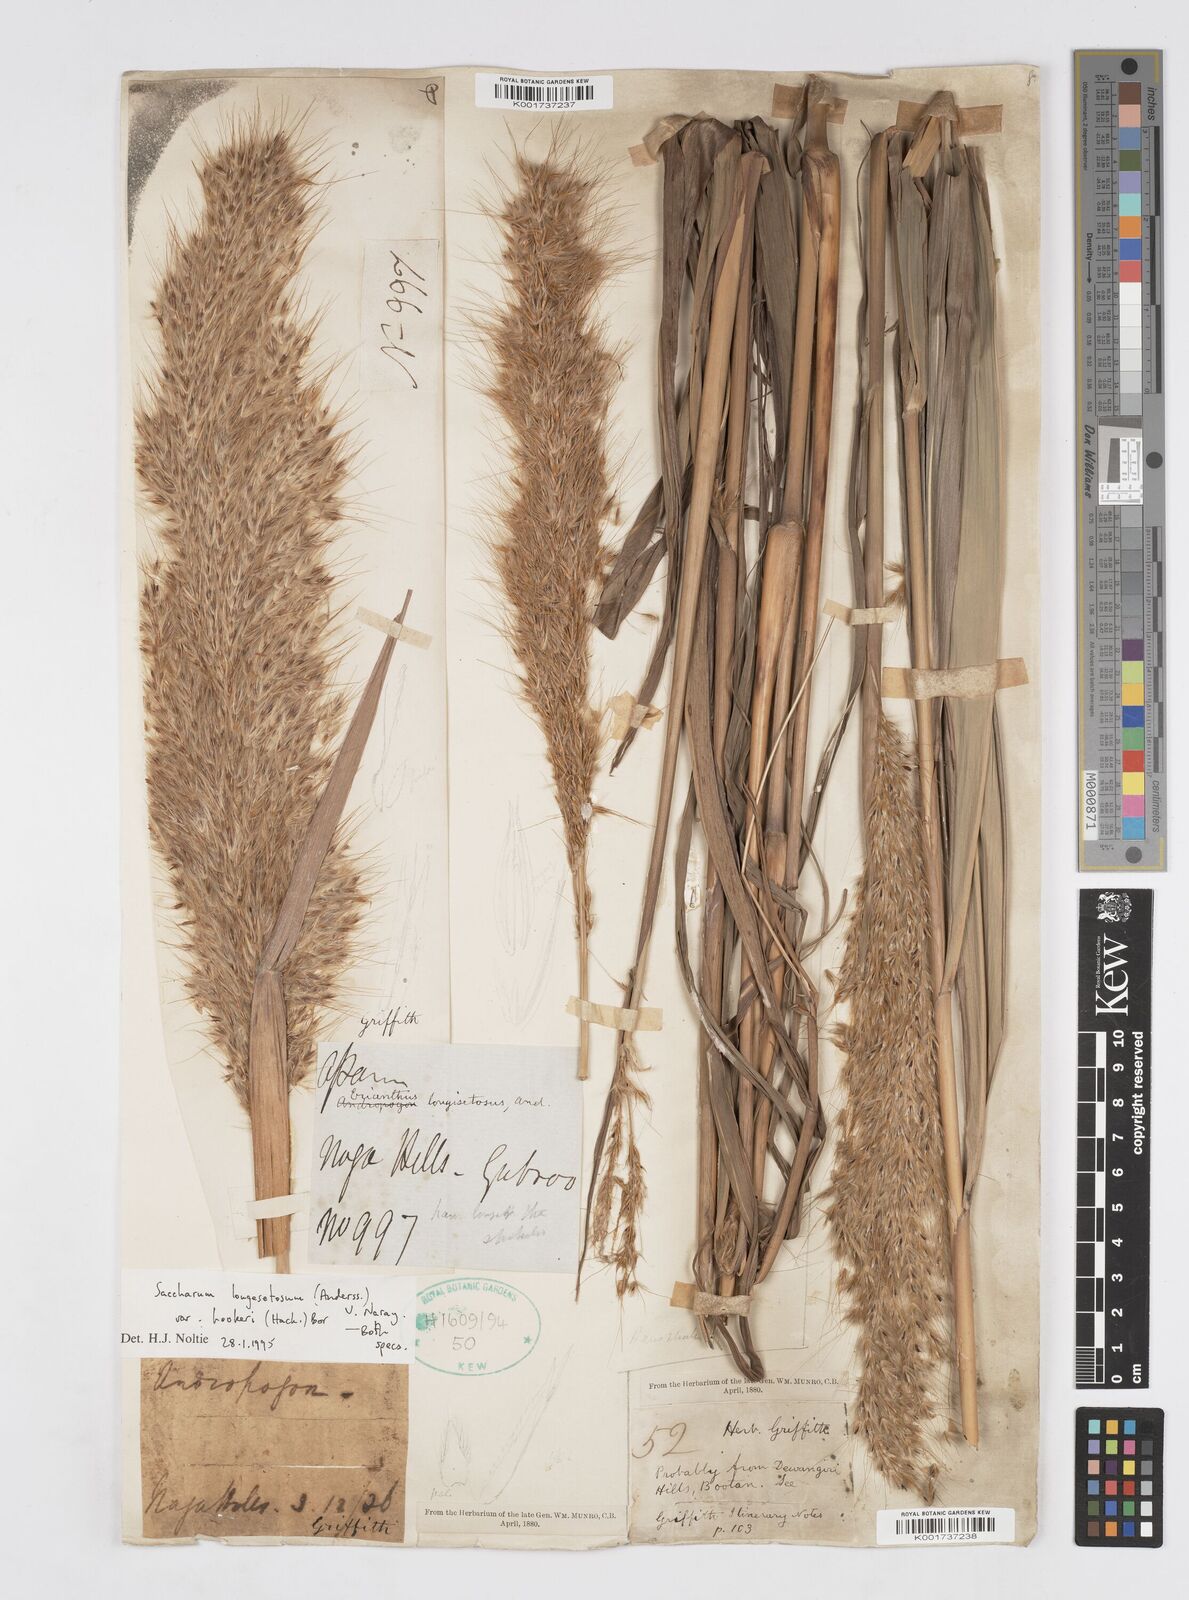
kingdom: Plantae
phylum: Tracheophyta
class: Liliopsida
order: Poales
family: Poaceae
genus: Saccharum
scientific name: Saccharum longesetosum
